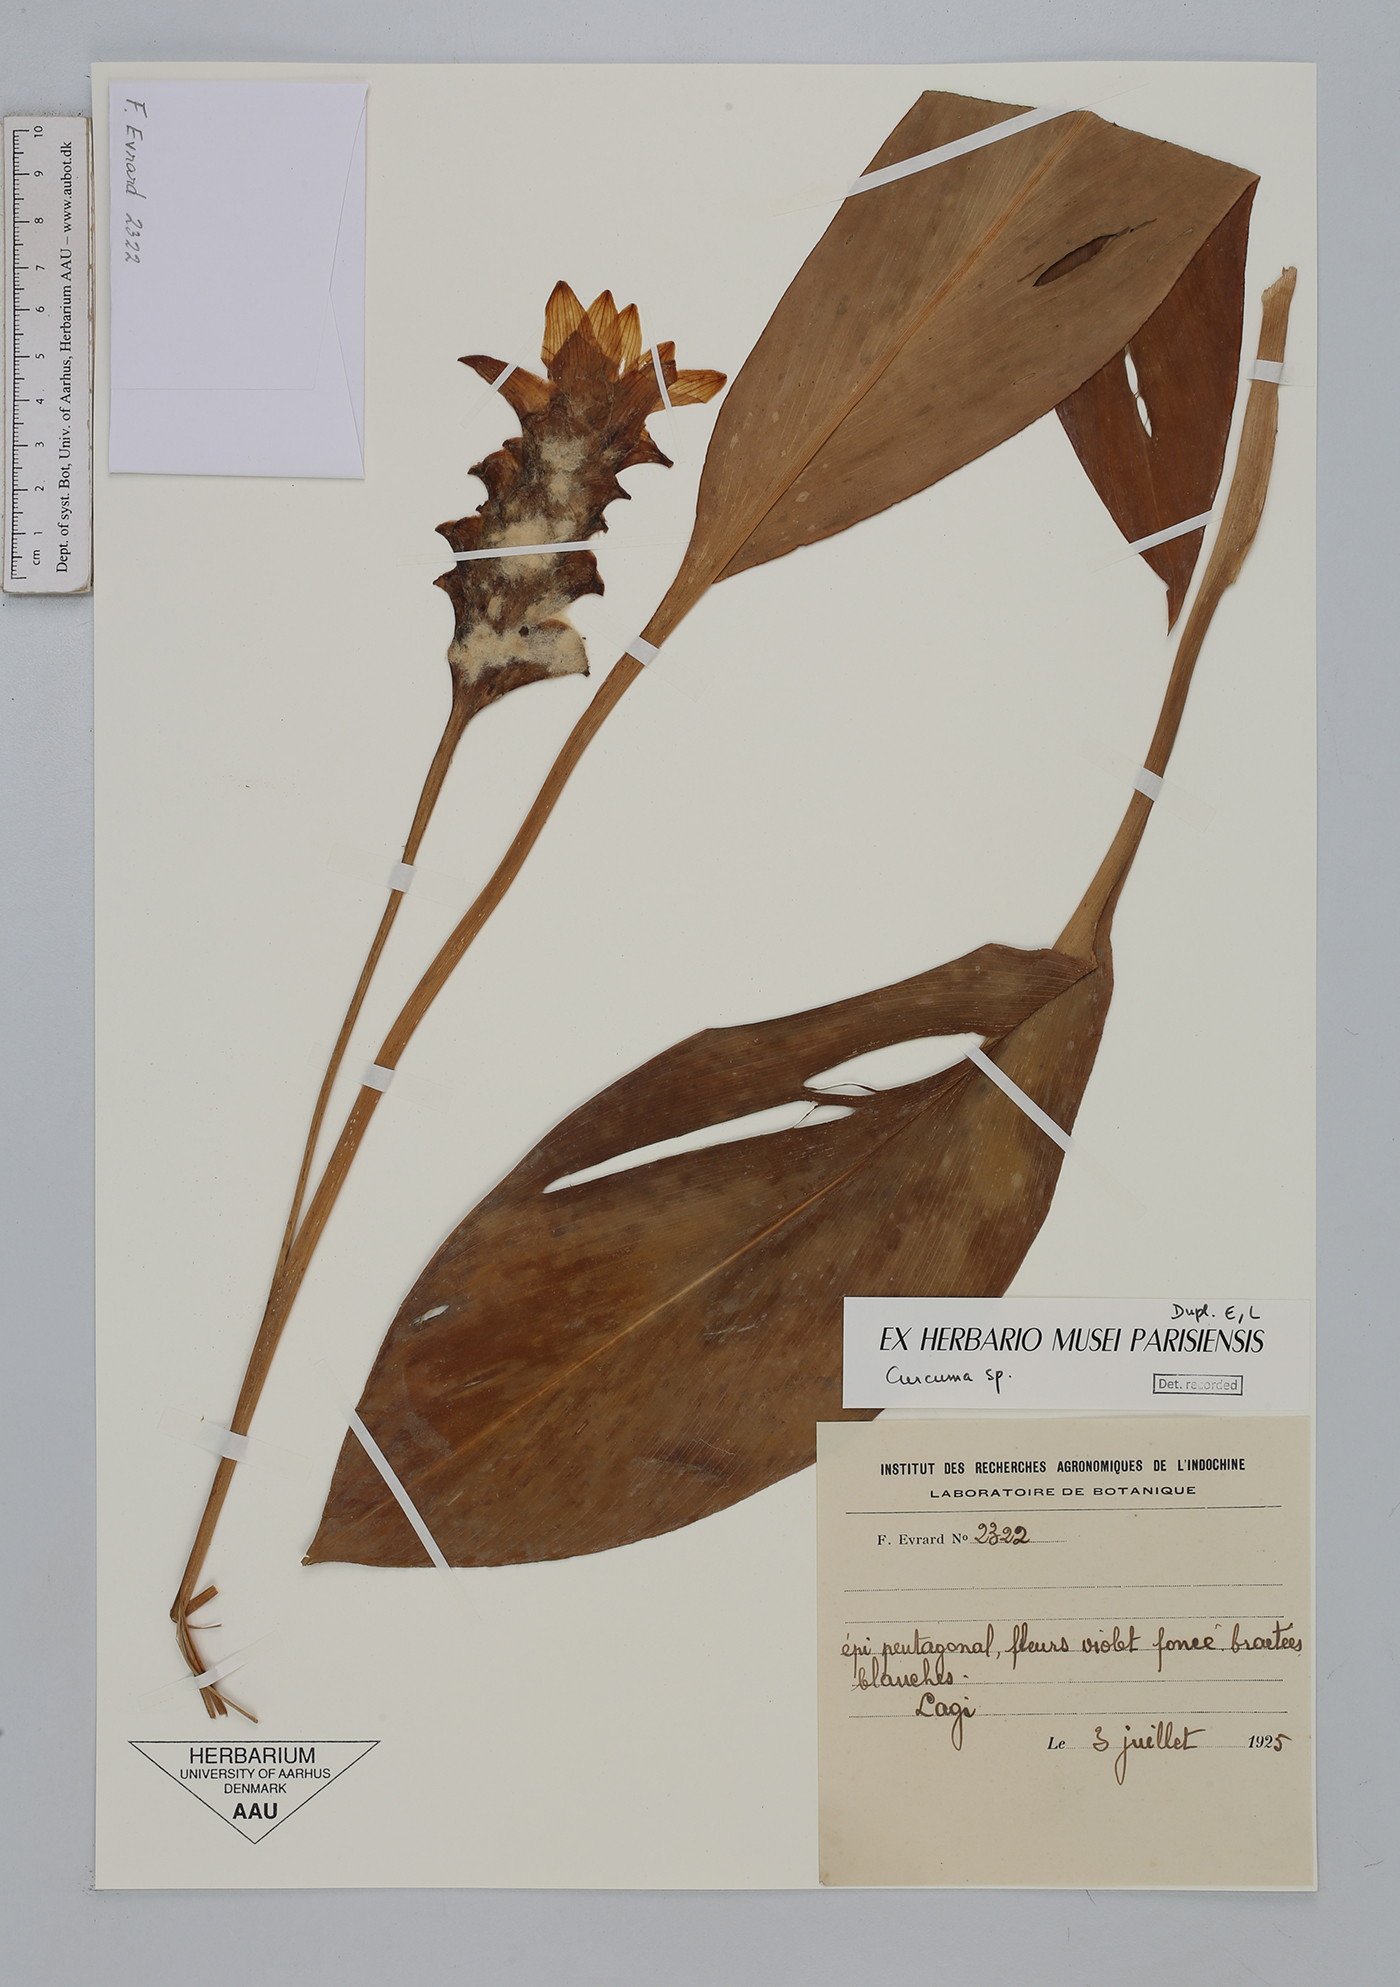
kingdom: Plantae
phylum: Tracheophyta
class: Liliopsida
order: Zingiberales
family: Zingiberaceae
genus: Curcuma
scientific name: Curcuma
